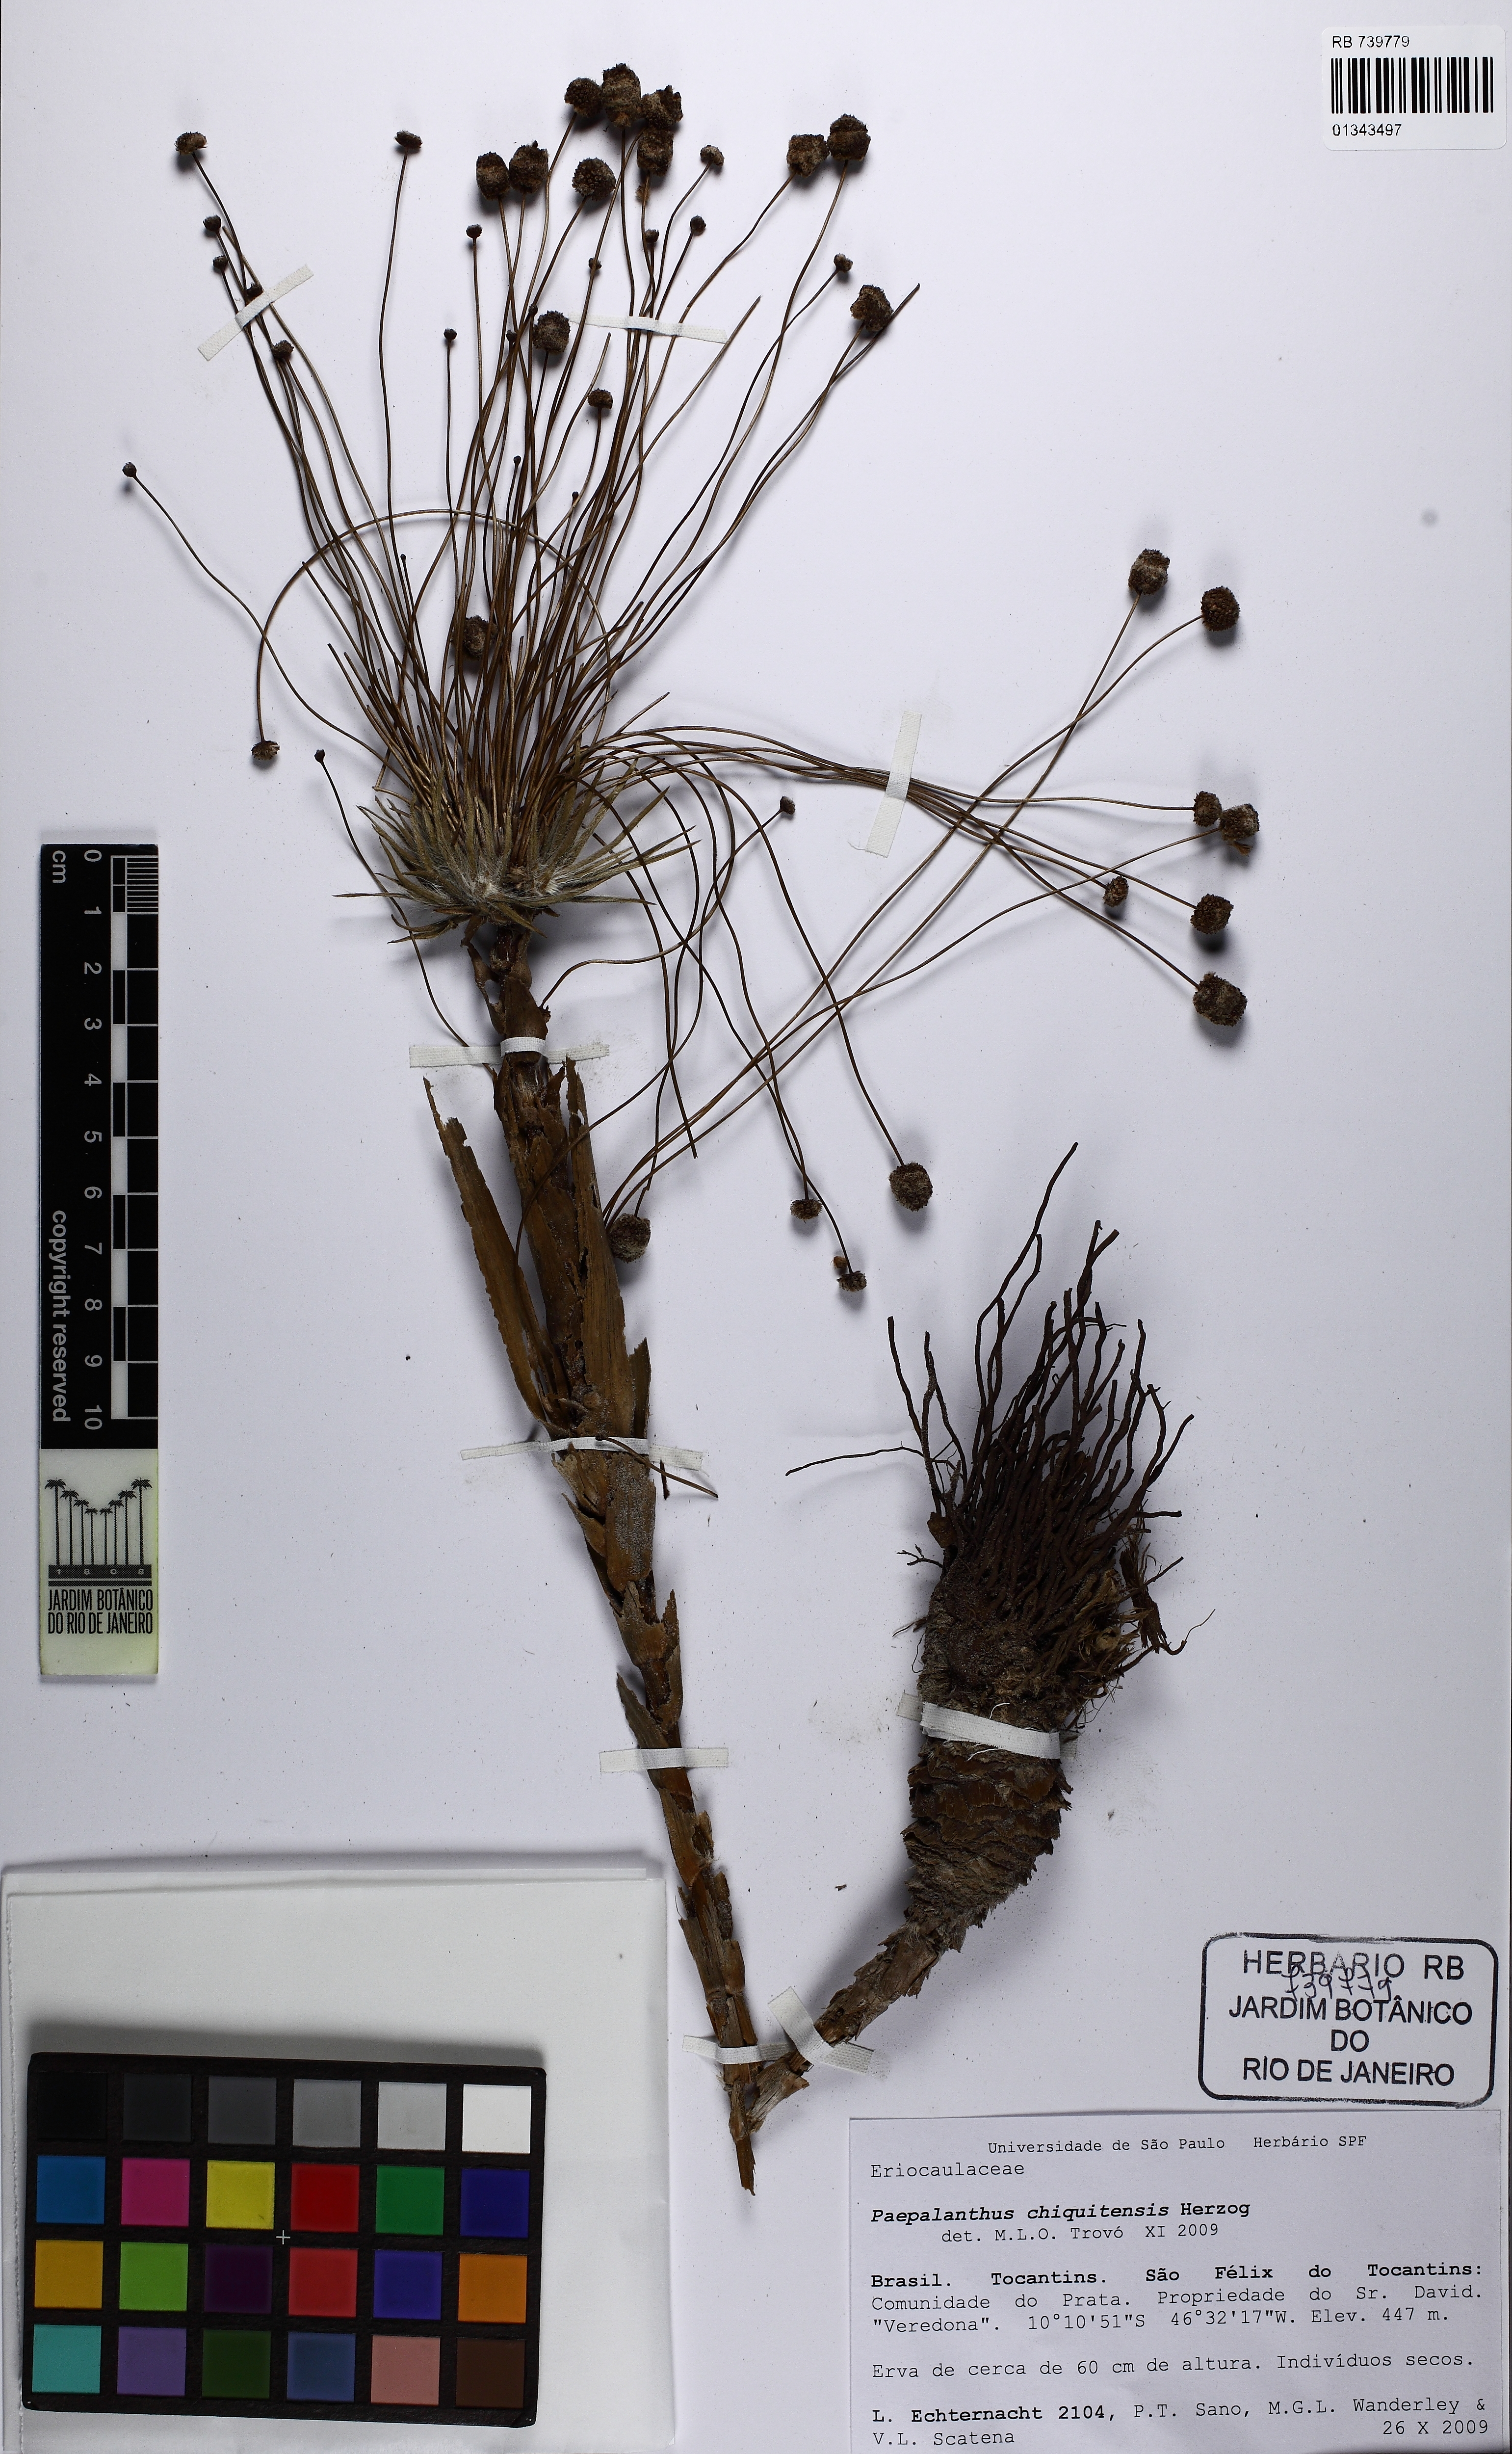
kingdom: Plantae
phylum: Tracheophyta
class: Liliopsida
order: Poales
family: Eriocaulaceae
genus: Paepalanthus
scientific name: Paepalanthus chiquitensis
